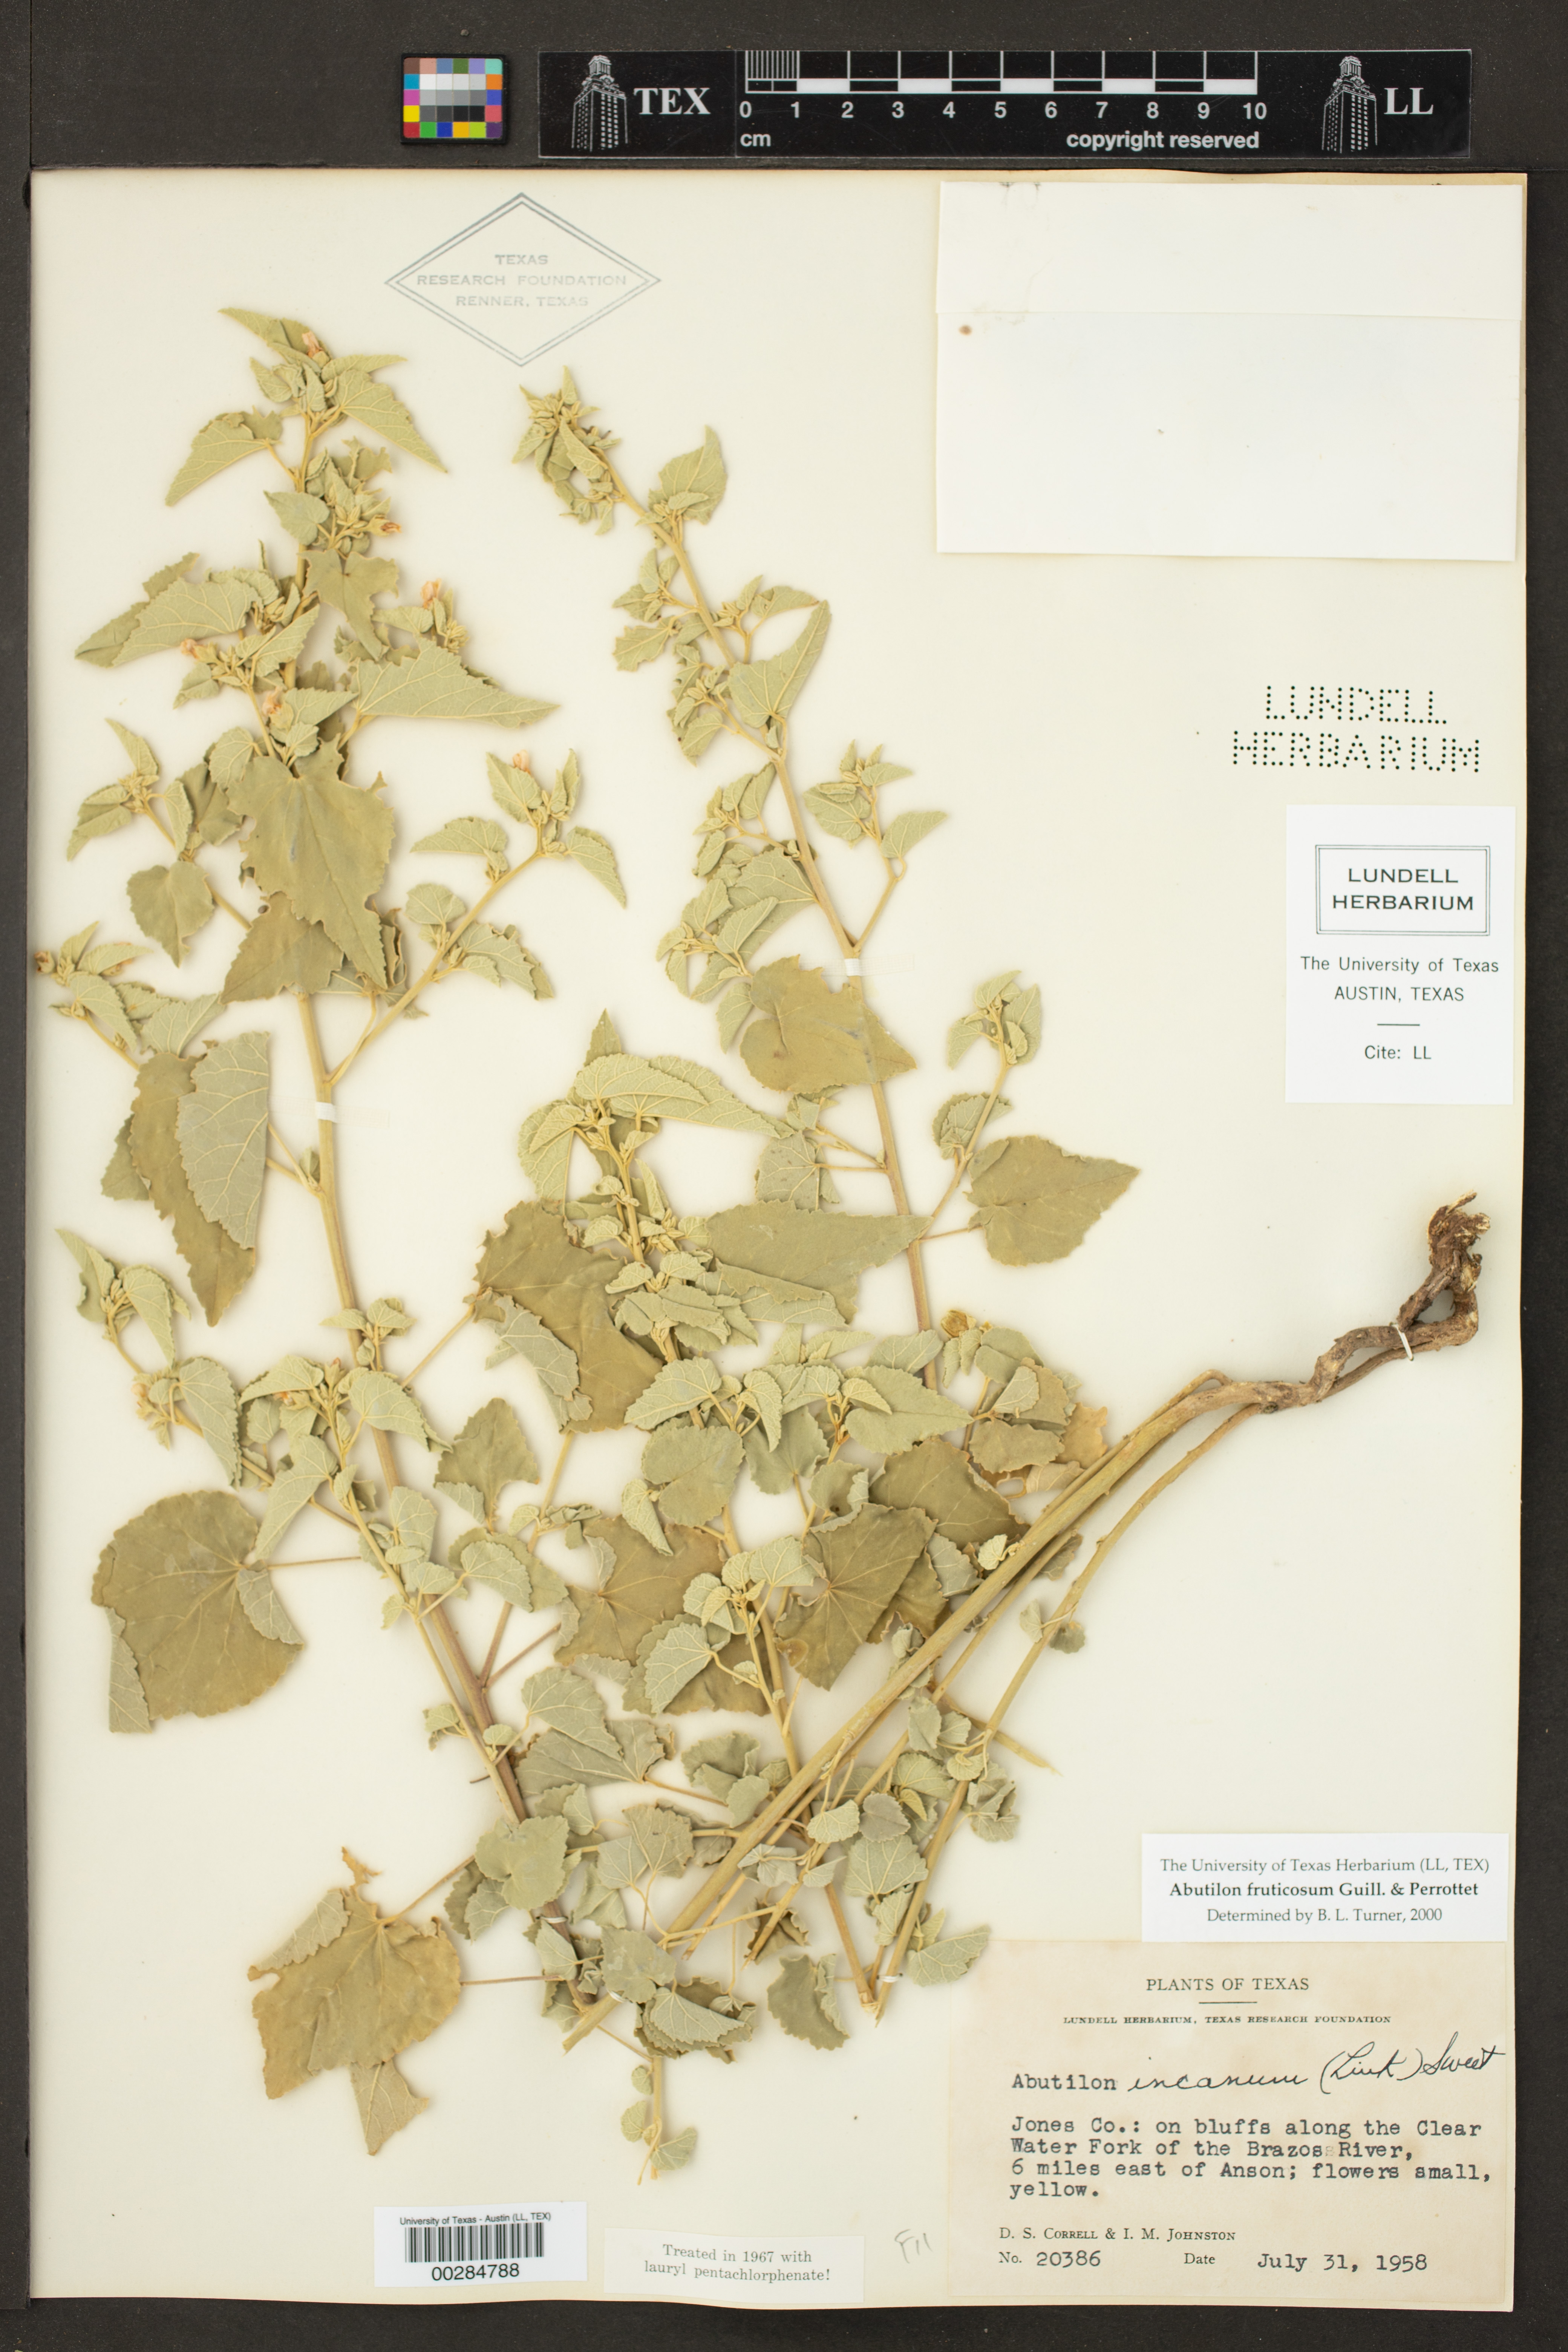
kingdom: Plantae
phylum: Tracheophyta
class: Magnoliopsida
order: Malvales
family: Malvaceae
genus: Abutilon
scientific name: Abutilon fruticosum
